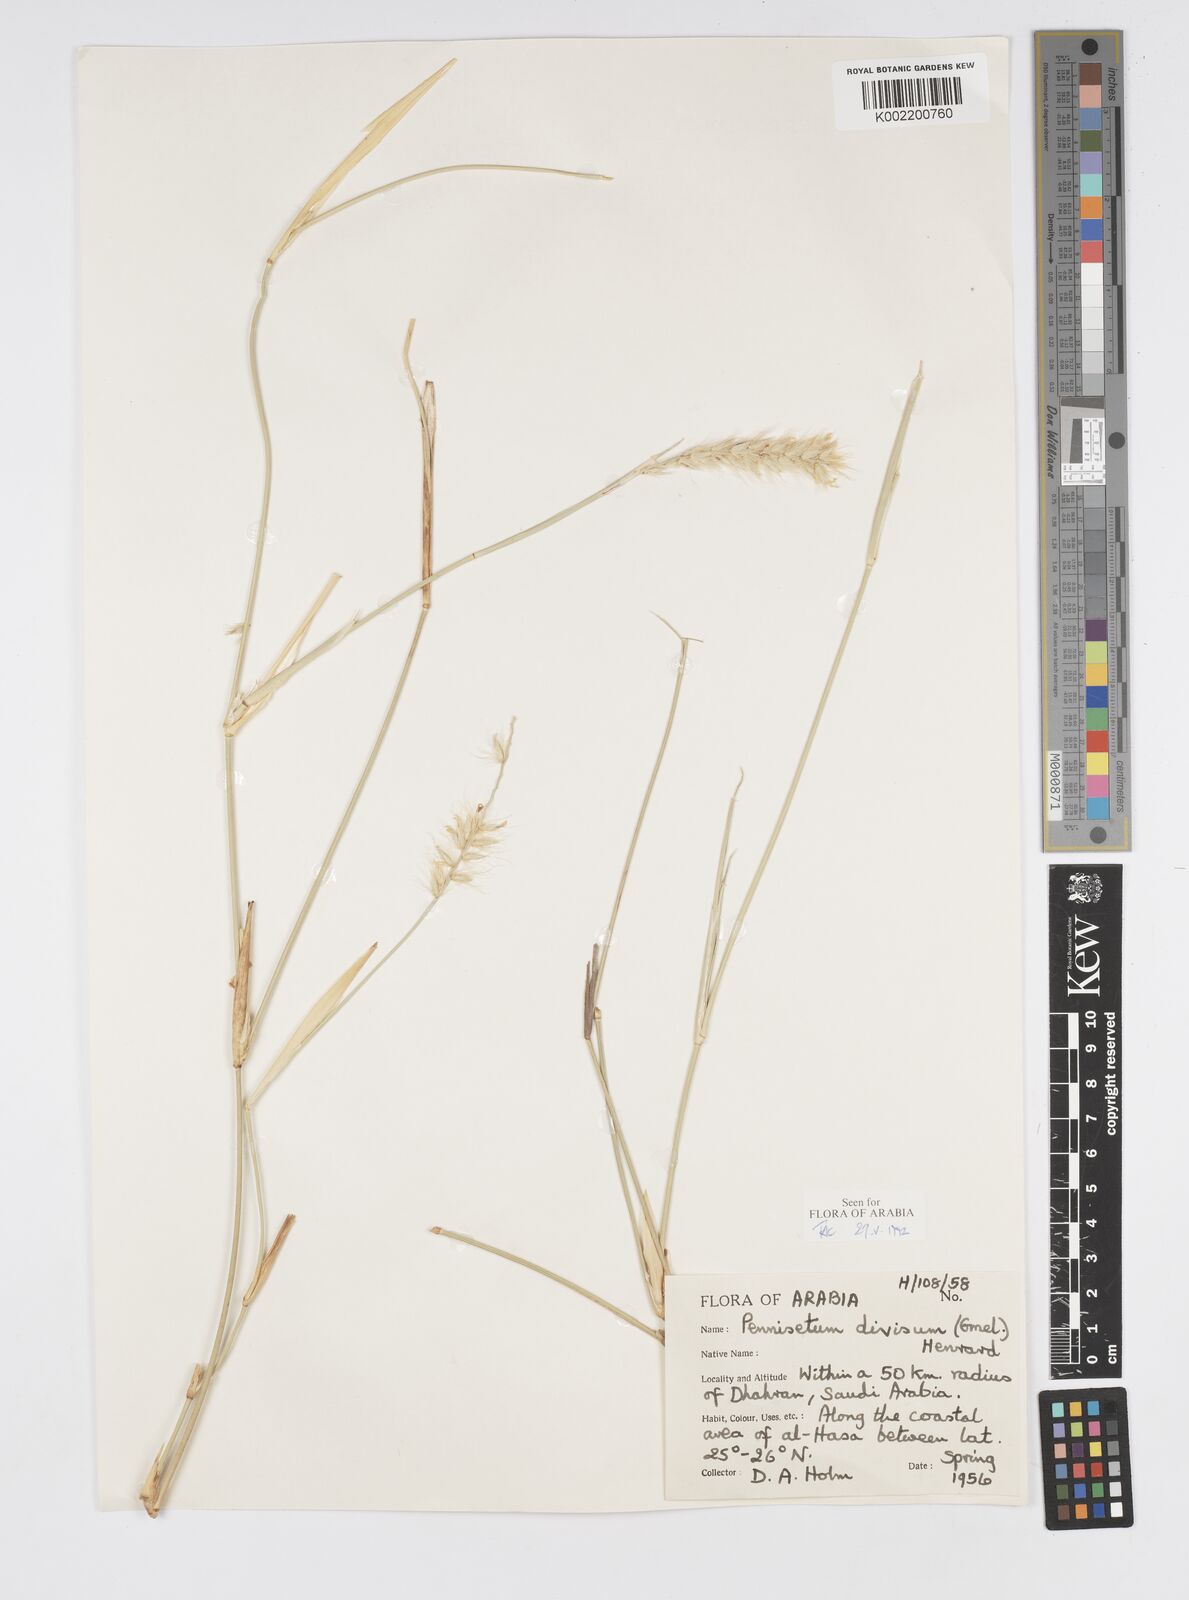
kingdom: Plantae
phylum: Tracheophyta
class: Liliopsida
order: Poales
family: Poaceae
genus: Cenchrus
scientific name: Cenchrus divisus
